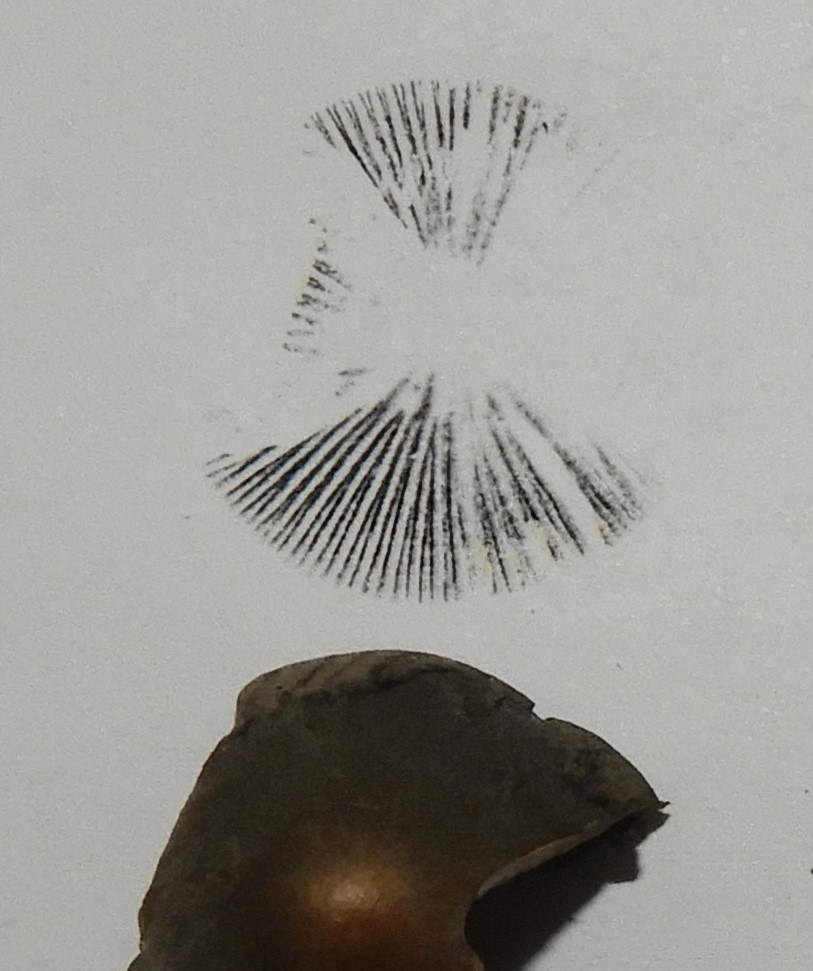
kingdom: Fungi
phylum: Basidiomycota
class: Agaricomycetes
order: Agaricales
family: Bolbitiaceae
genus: Panaeolus
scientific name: Panaeolus papilionaceus
